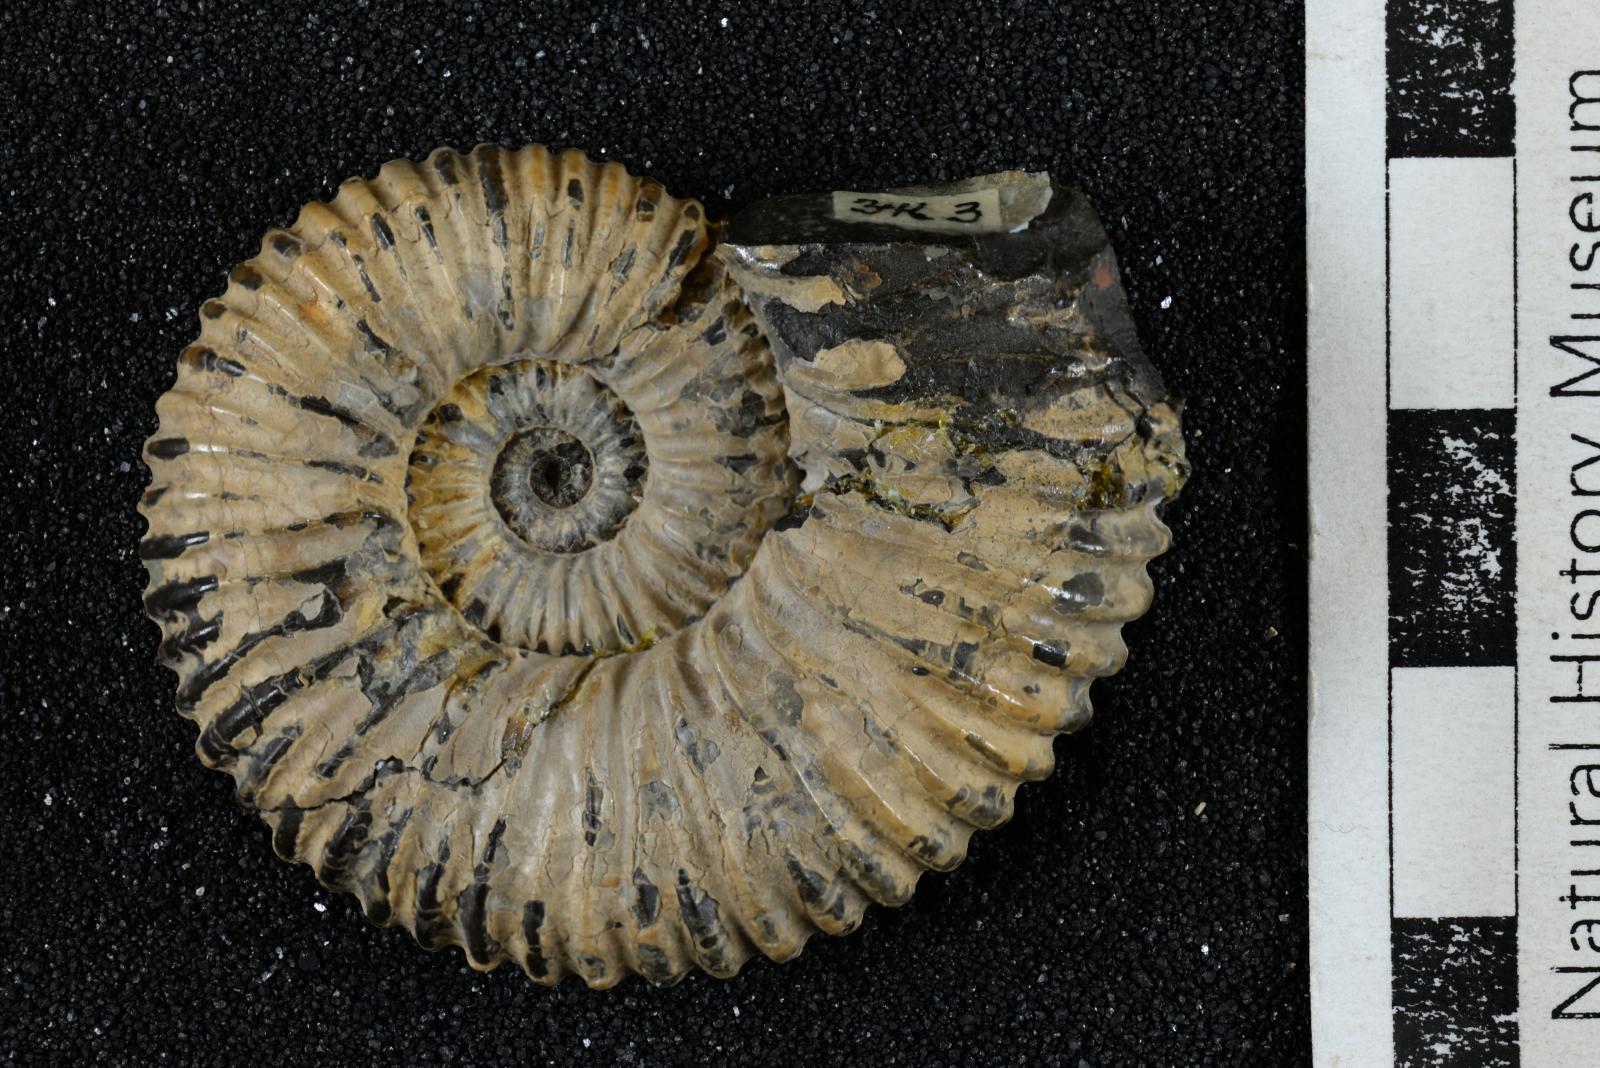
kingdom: Animalia
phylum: Mollusca
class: Cephalopoda
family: Deshayesitidae
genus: Acanthohoplites
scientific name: Acanthohoplites Acanthoplites subbigoti
